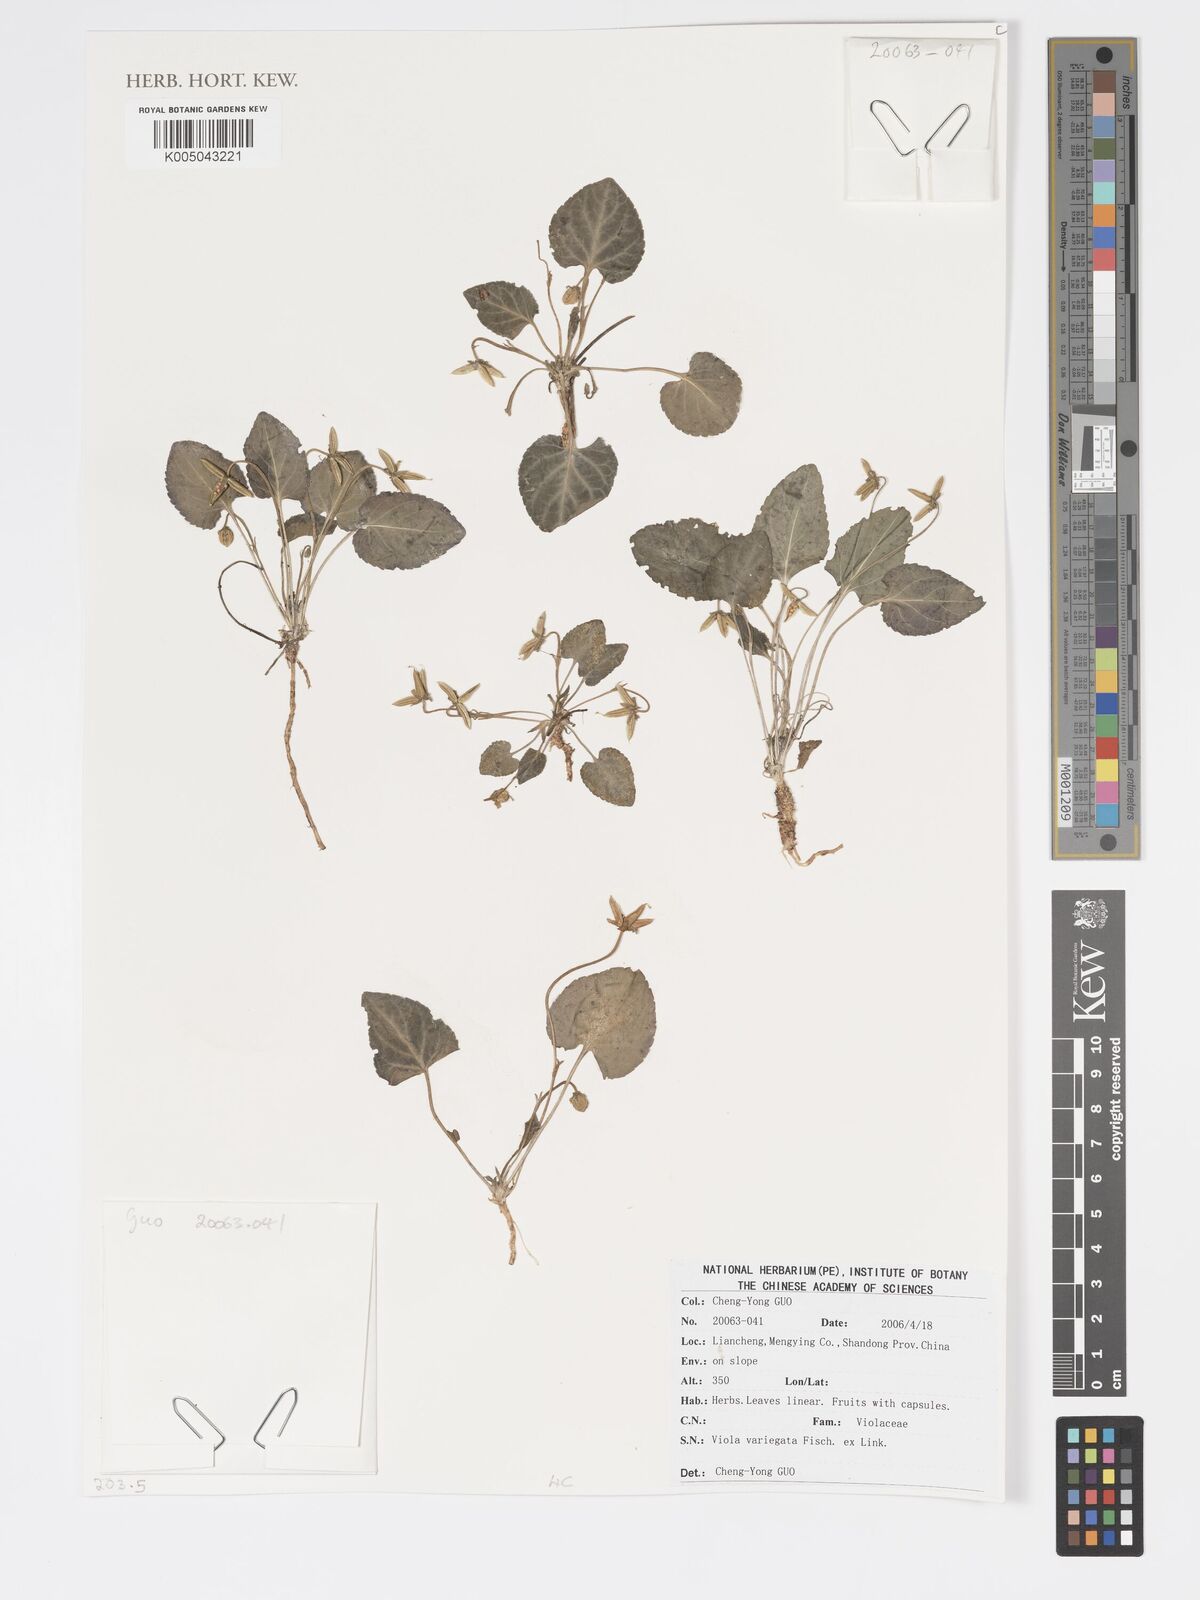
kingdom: Plantae
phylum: Tracheophyta
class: Magnoliopsida
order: Malpighiales
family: Violaceae
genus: Viola
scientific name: Viola vaginata
